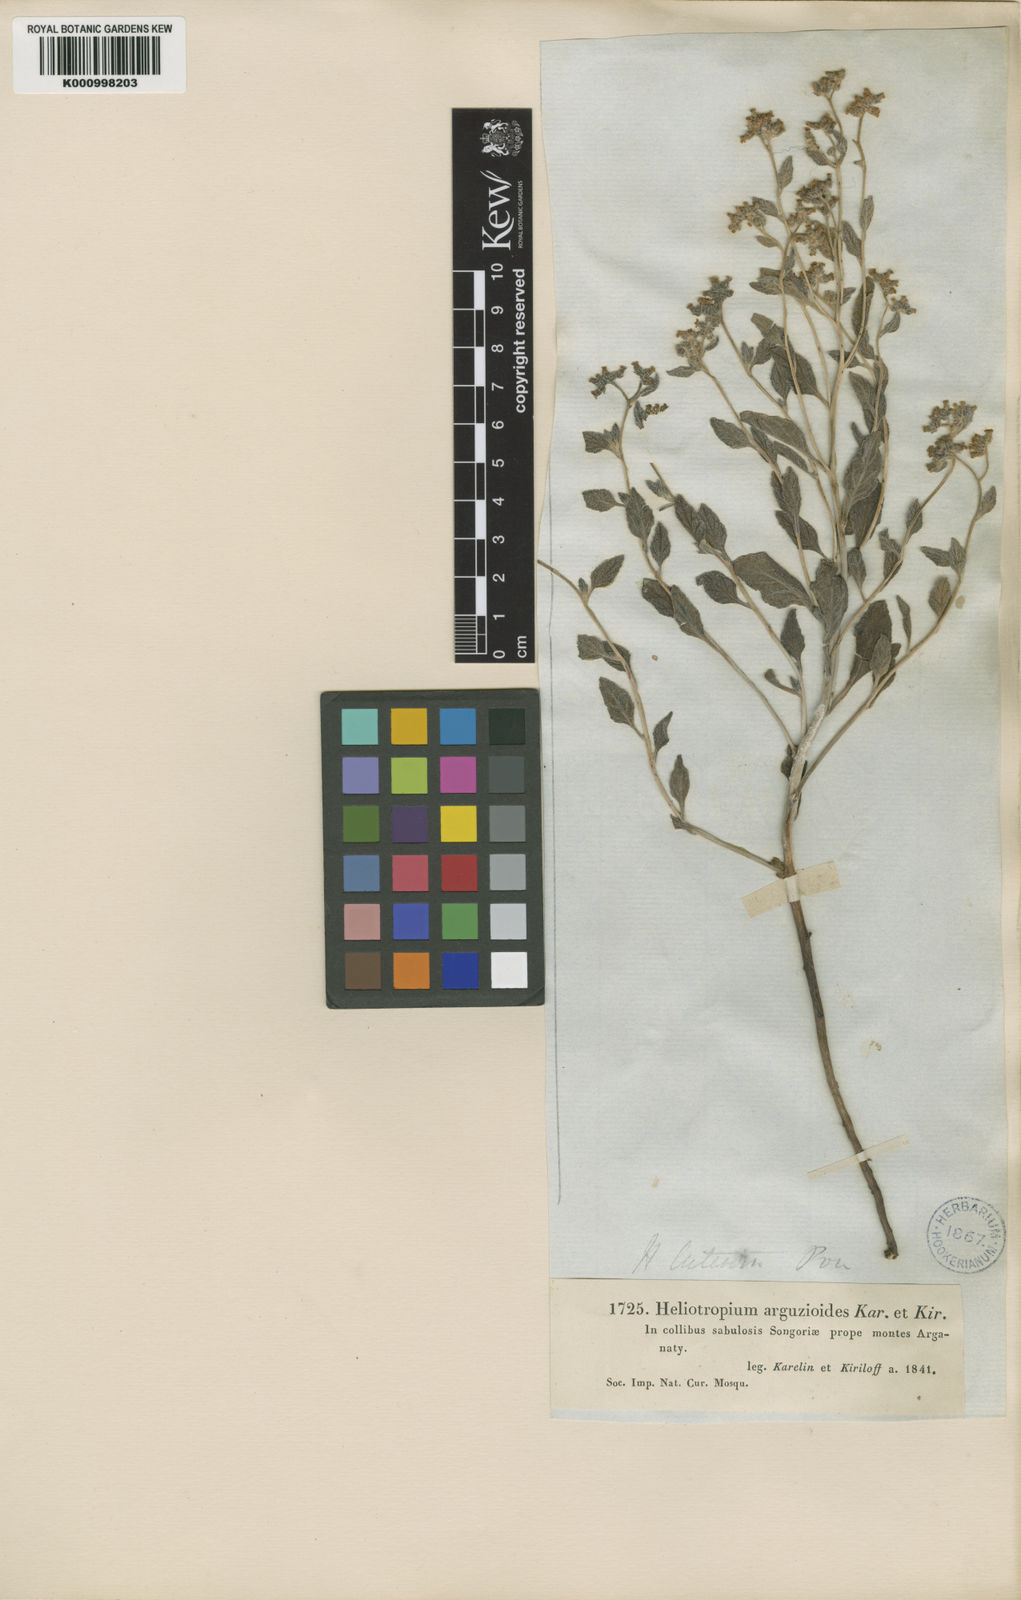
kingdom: Plantae
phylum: Tracheophyta
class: Magnoliopsida
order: Boraginales
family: Heliotropiaceae
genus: Heliotropium
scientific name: Heliotropium bucharicum
